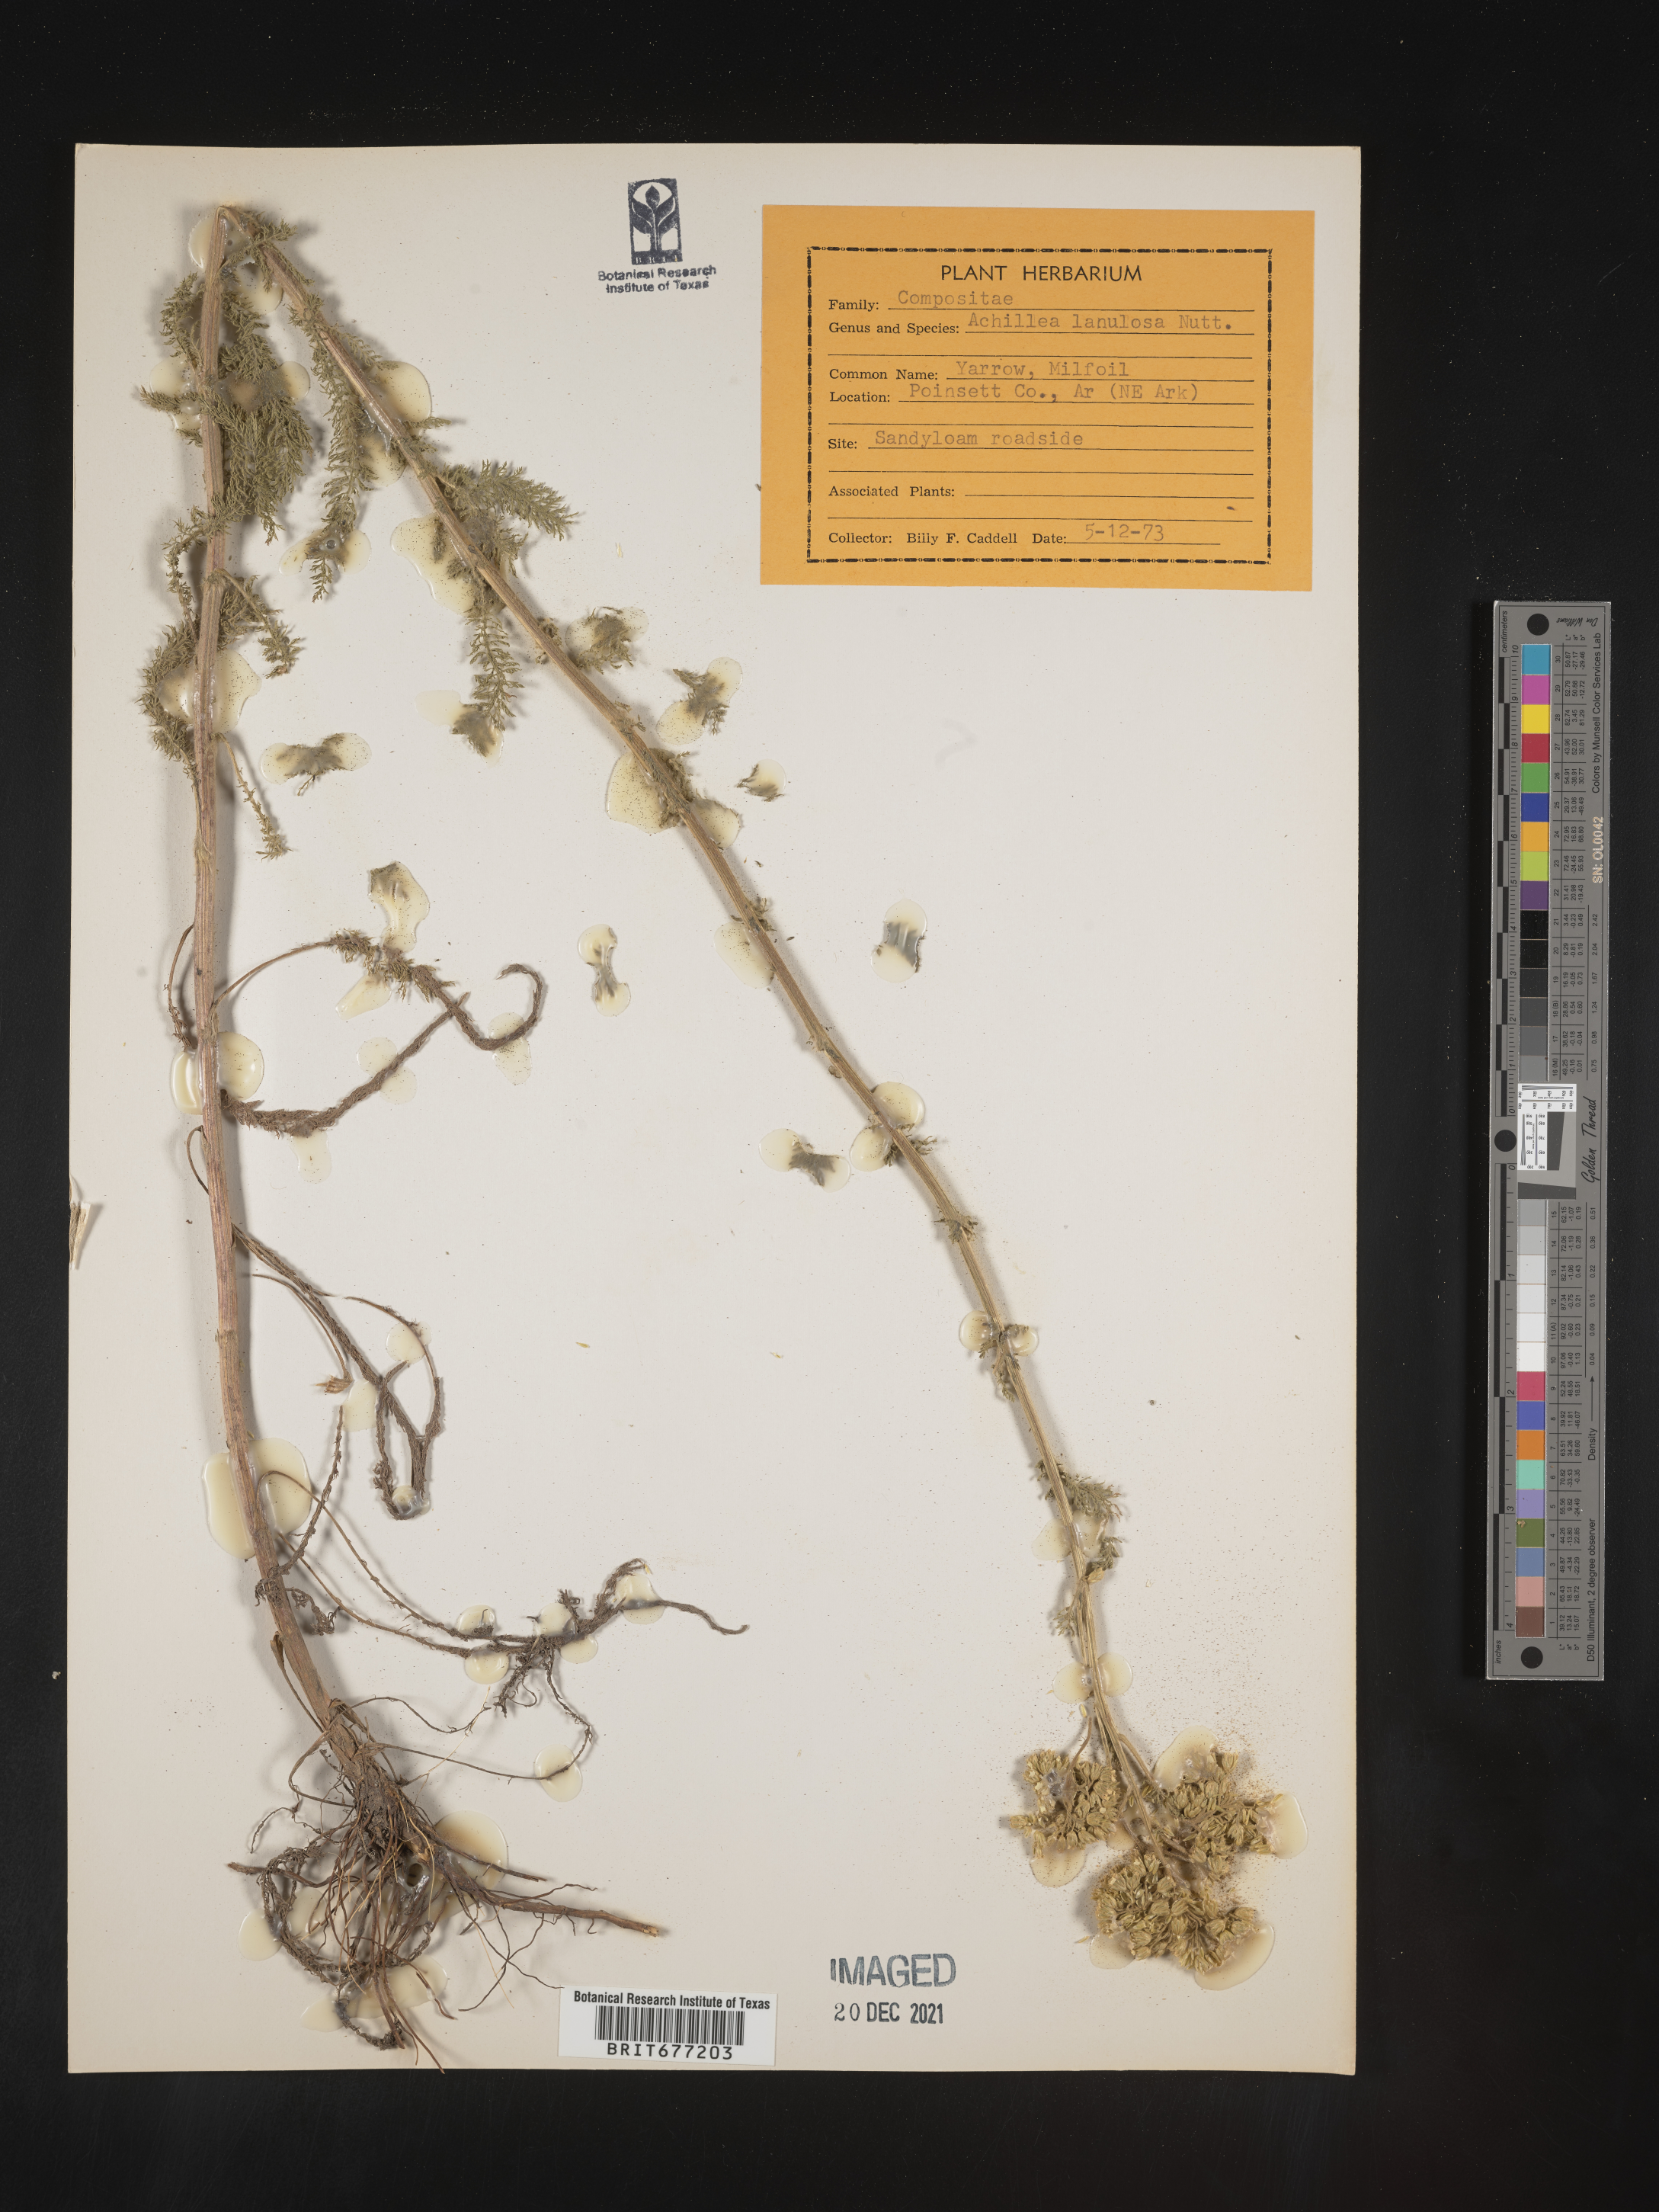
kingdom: Plantae
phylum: Tracheophyta
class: Magnoliopsida
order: Asterales
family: Asteraceae
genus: Achillea
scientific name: Achillea millefolium
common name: Yarrow
